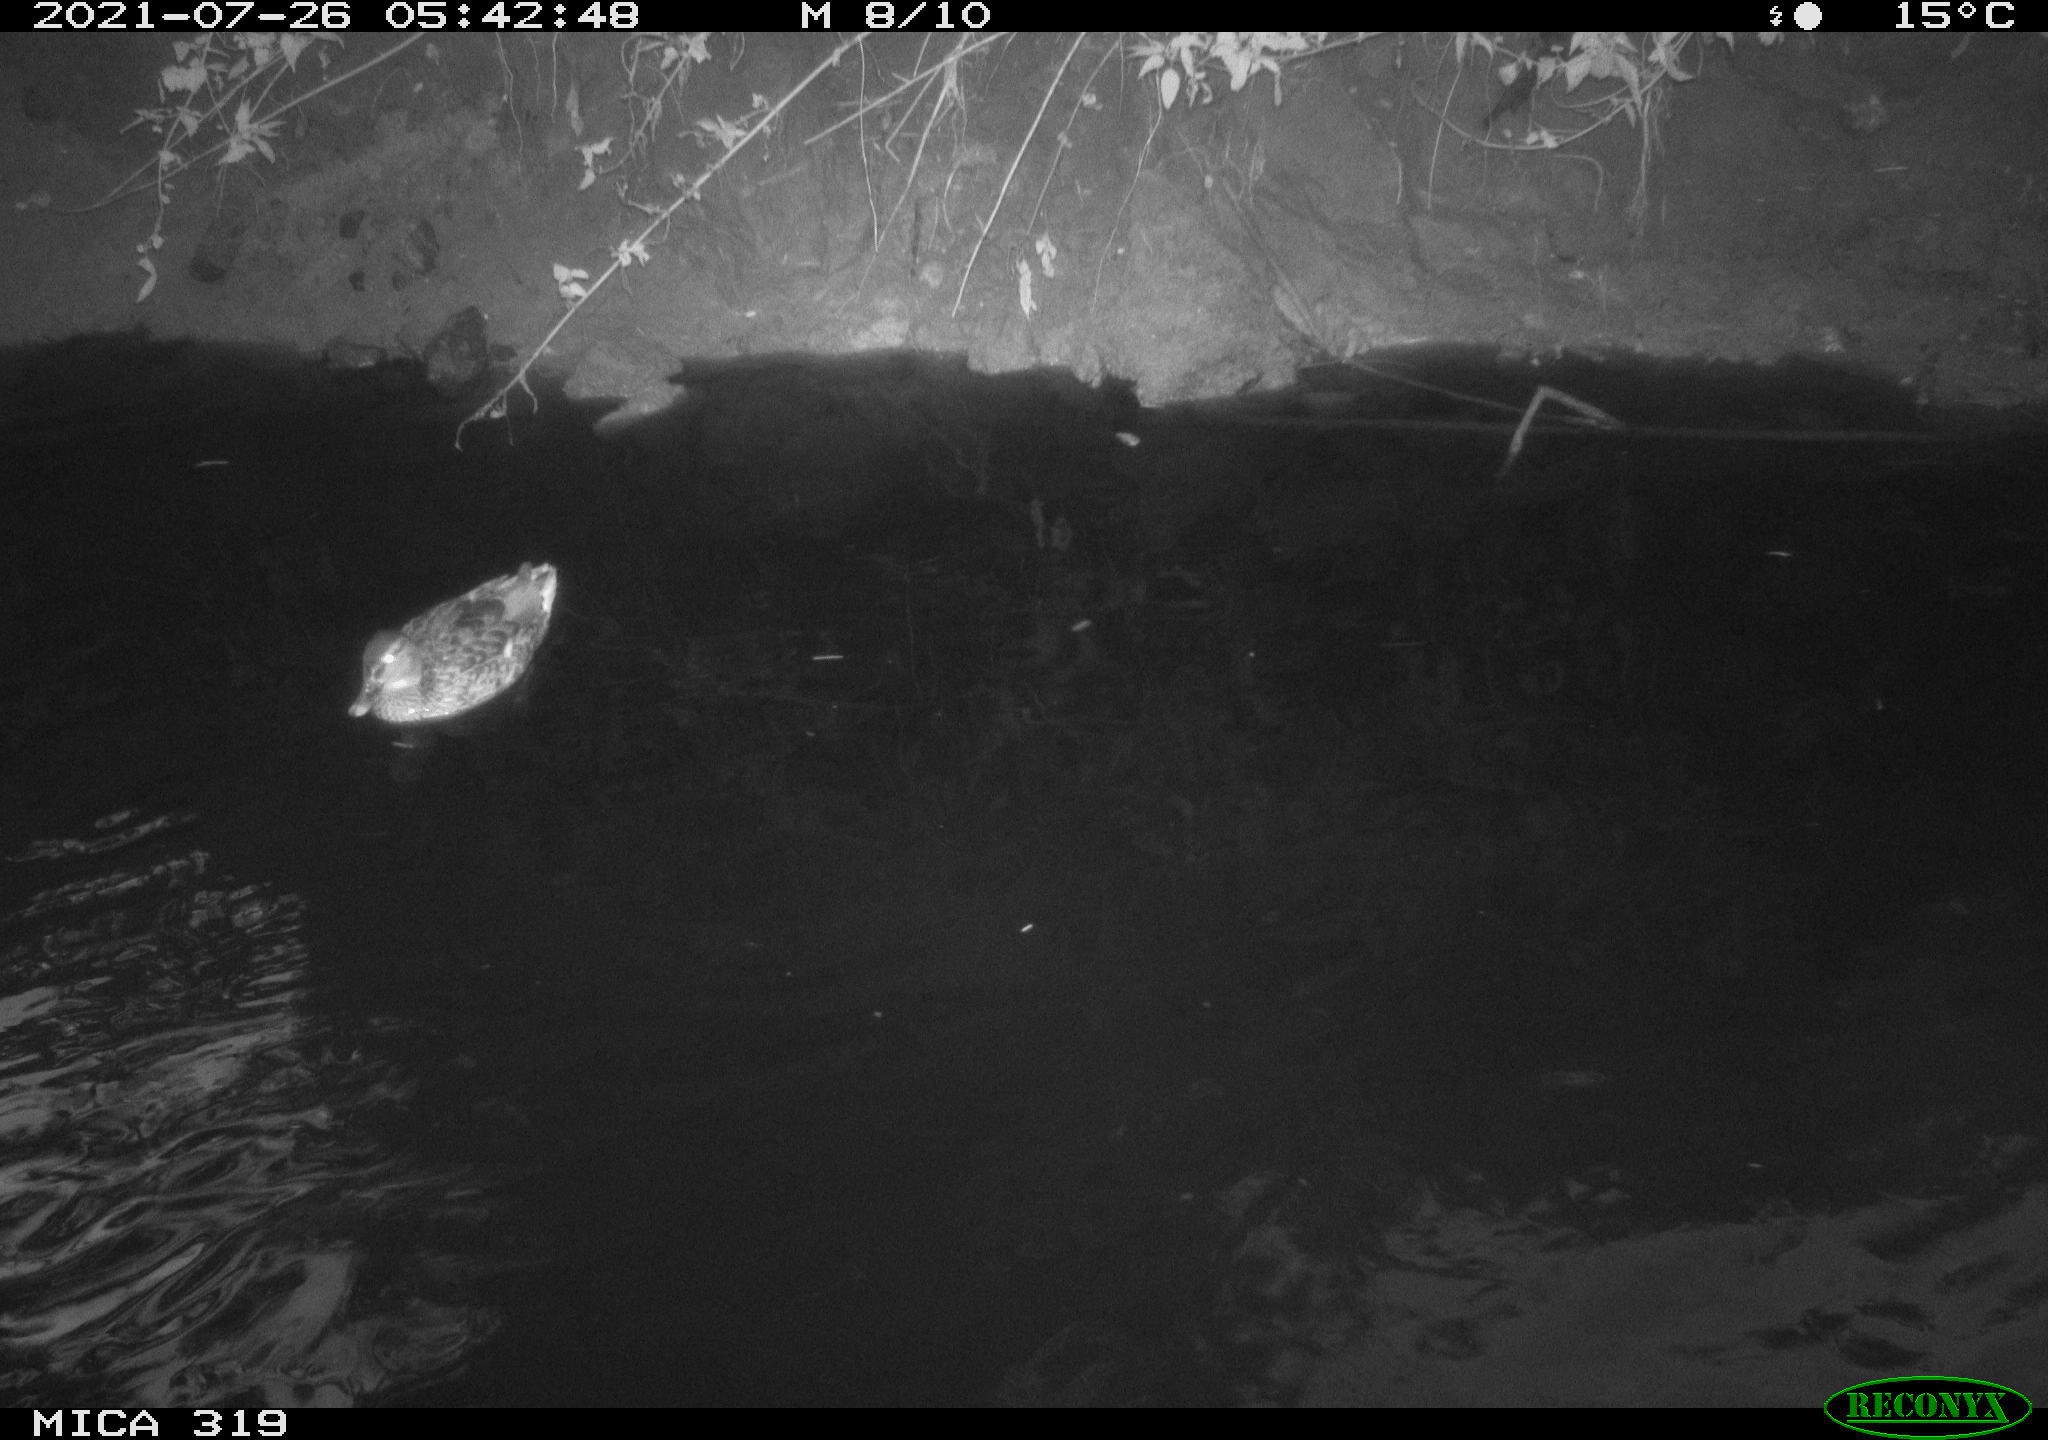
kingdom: Animalia
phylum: Chordata
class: Aves
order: Anseriformes
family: Anatidae
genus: Anas
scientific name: Anas platyrhynchos
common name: Mallard
